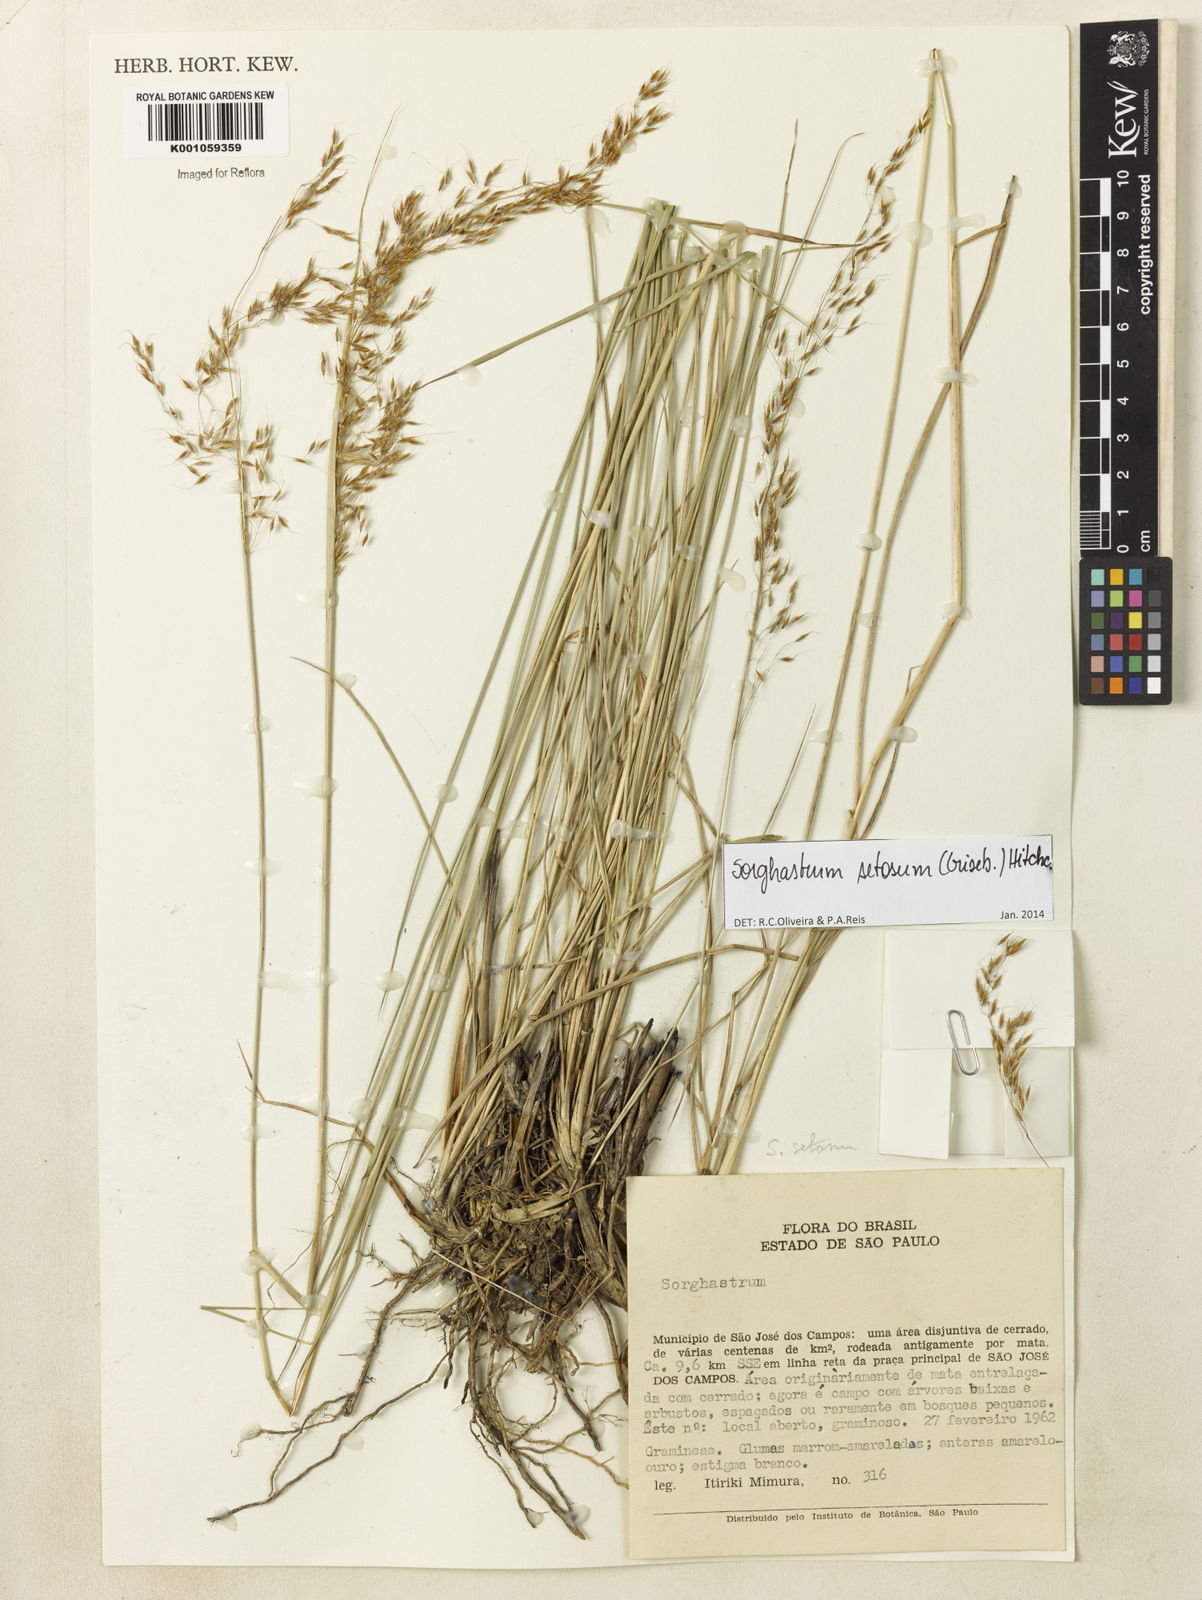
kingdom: Plantae
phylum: Tracheophyta
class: Liliopsida
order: Poales
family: Poaceae
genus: Sorghastrum
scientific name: Sorghastrum setosum
